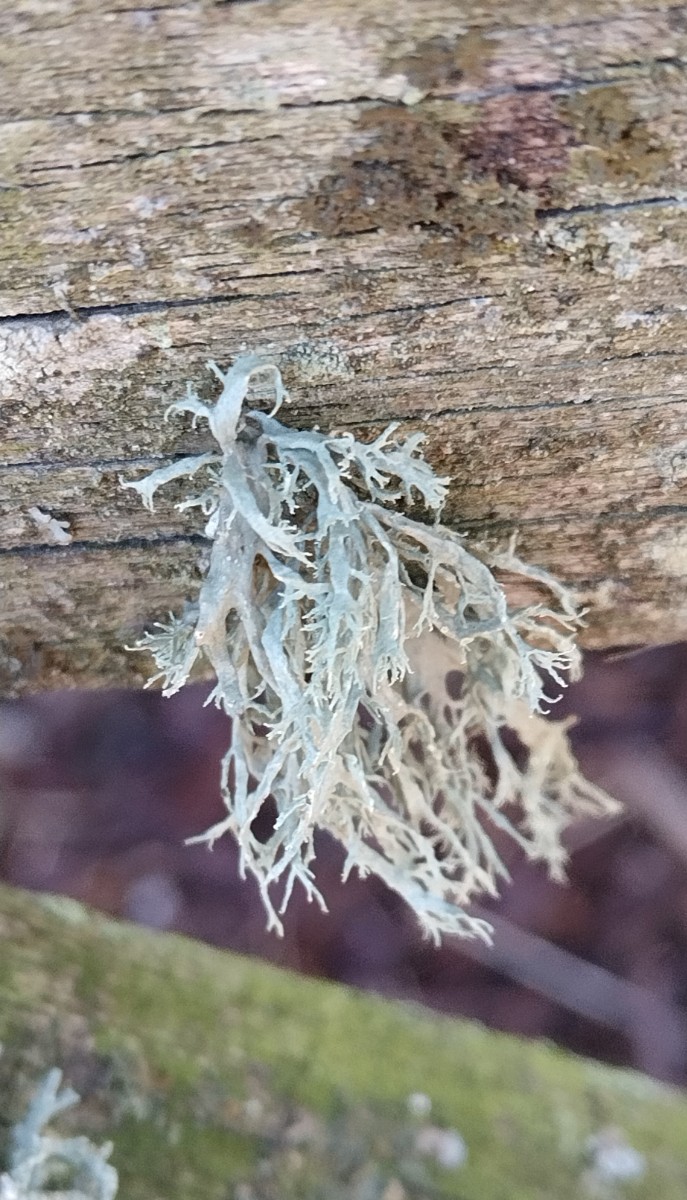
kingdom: Fungi
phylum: Ascomycota
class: Lecanoromycetes
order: Lecanorales
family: Ramalinaceae
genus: Ramalina
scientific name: Ramalina farinacea
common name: melet grenlav
